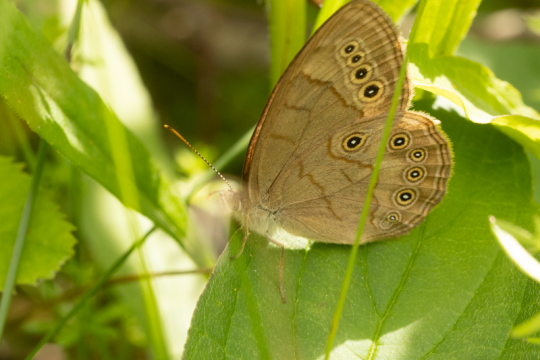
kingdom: Animalia
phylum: Arthropoda
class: Insecta
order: Lepidoptera
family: Nymphalidae
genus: Lethe
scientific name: Lethe eurydice
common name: Eyed Brown
